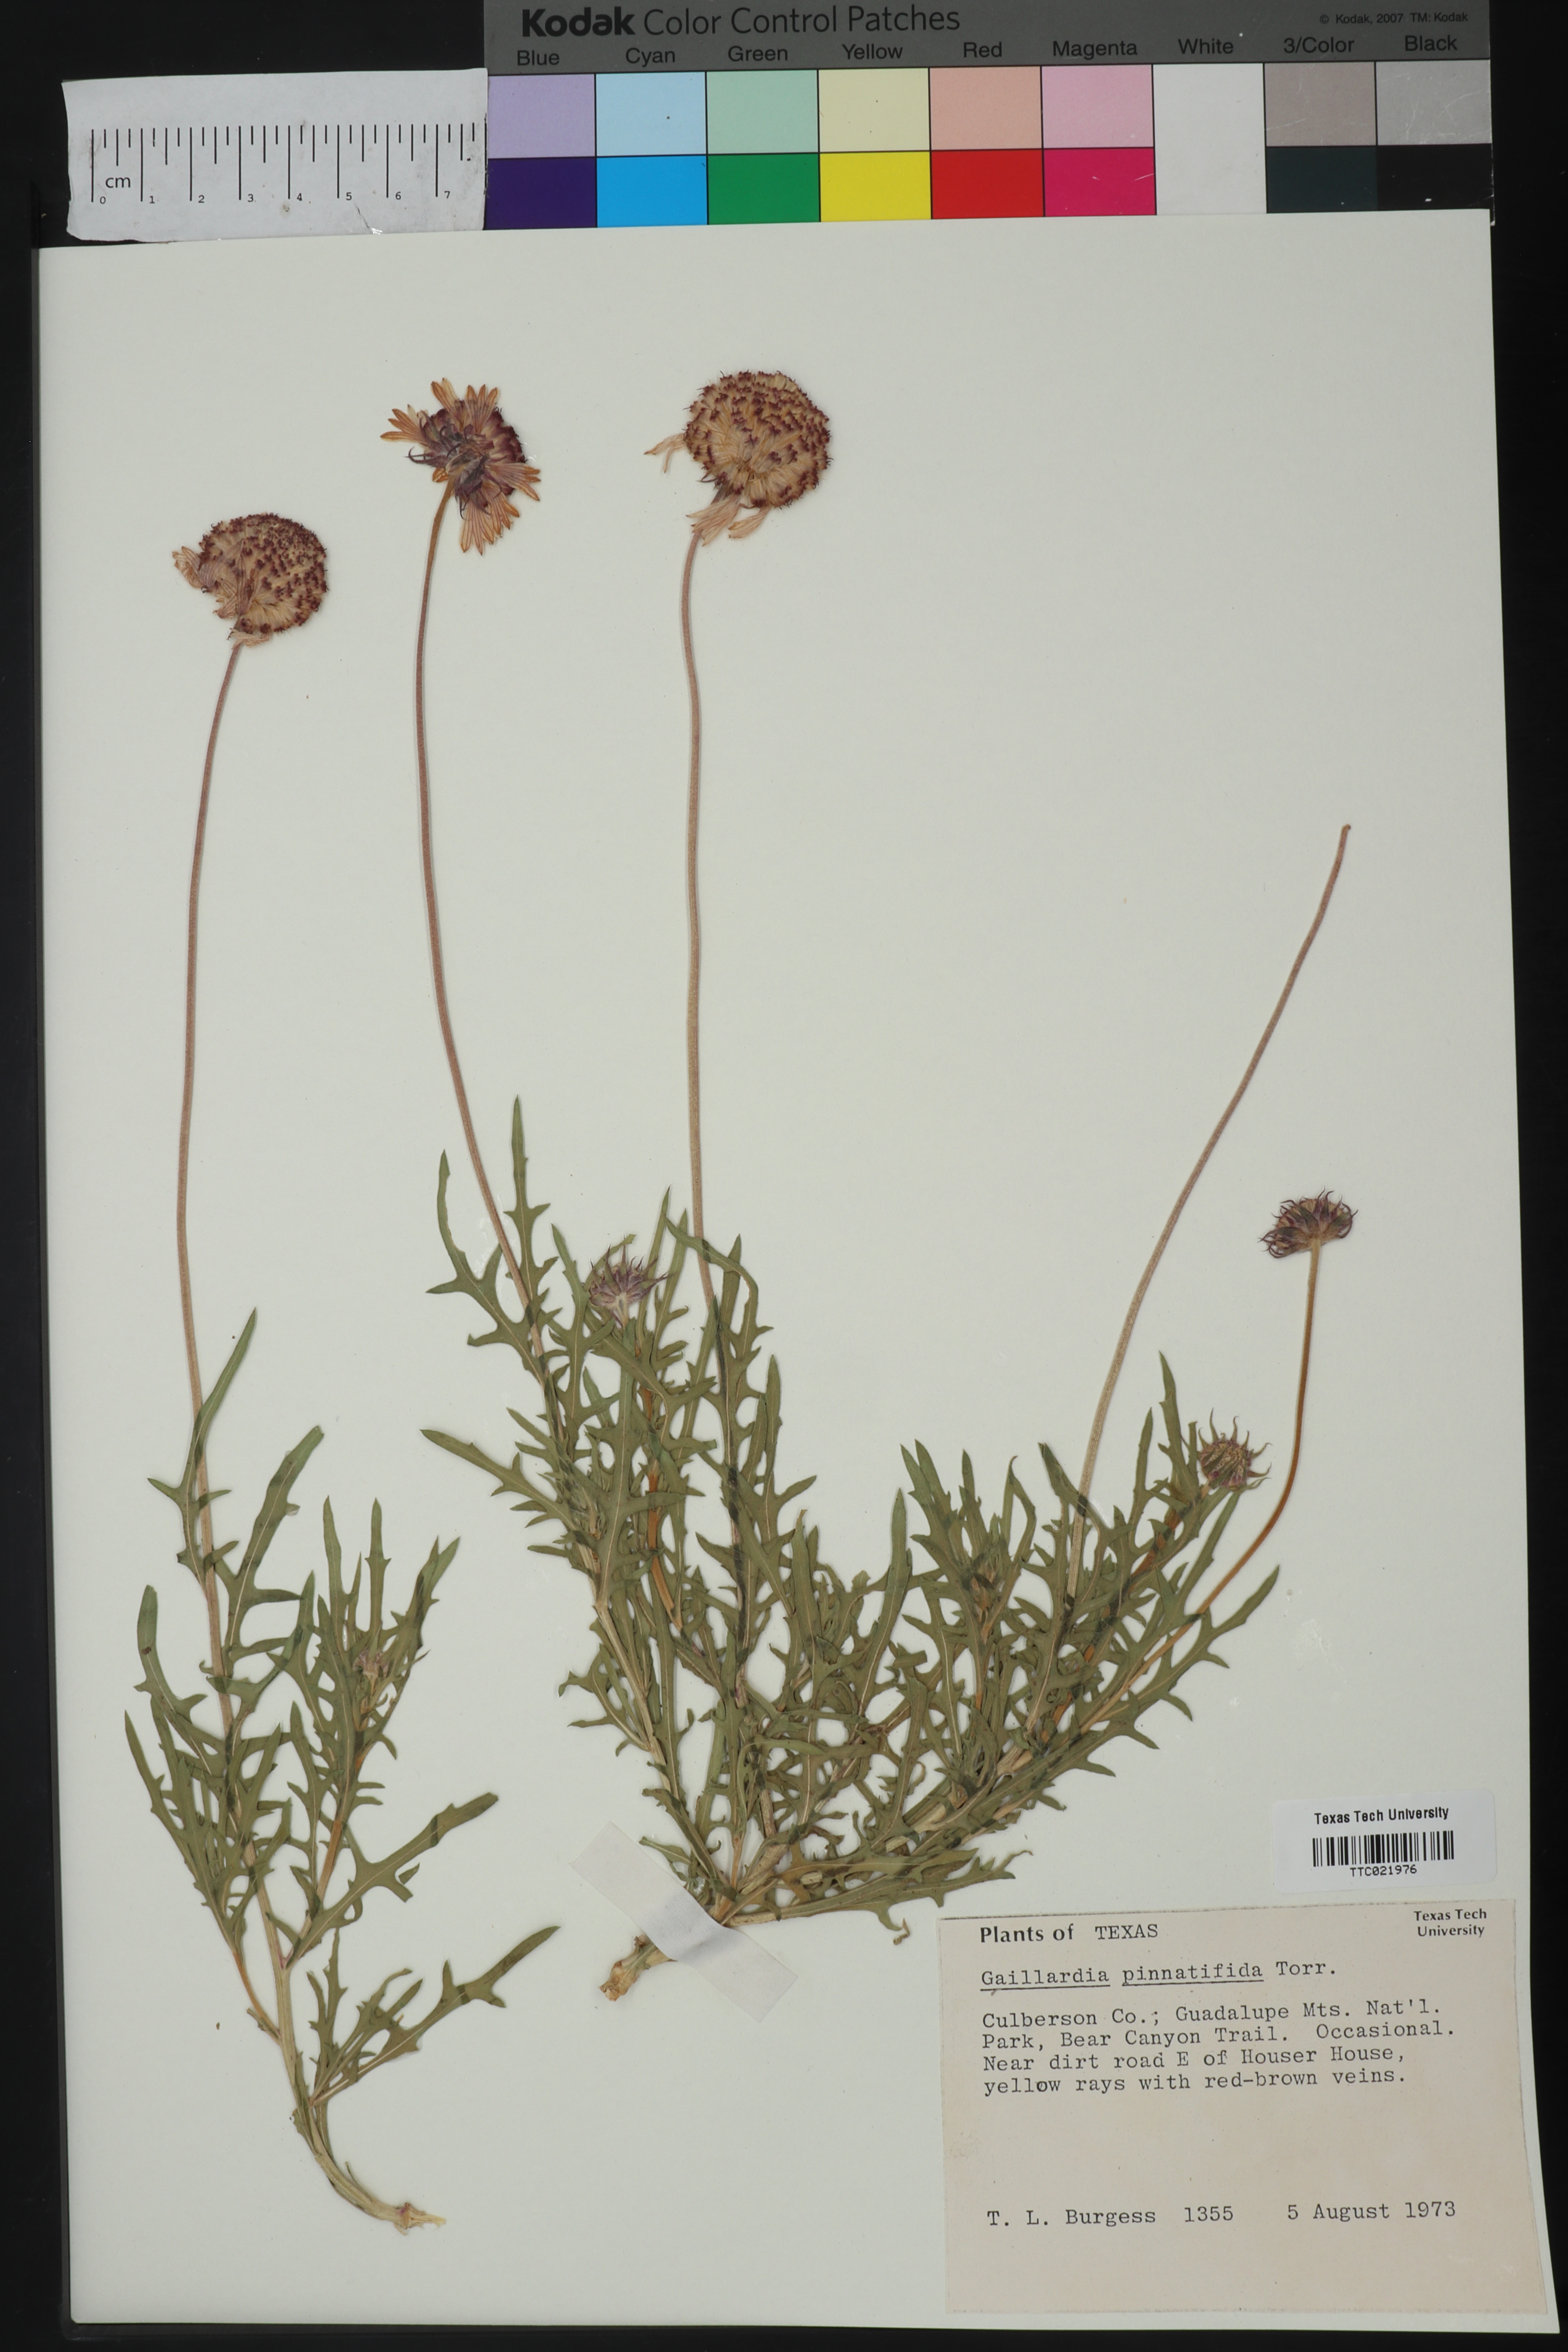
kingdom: Plantae
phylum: Tracheophyta
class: Magnoliopsida
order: Asterales
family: Asteraceae
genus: Gaillardia
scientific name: Gaillardia pinnatifida
